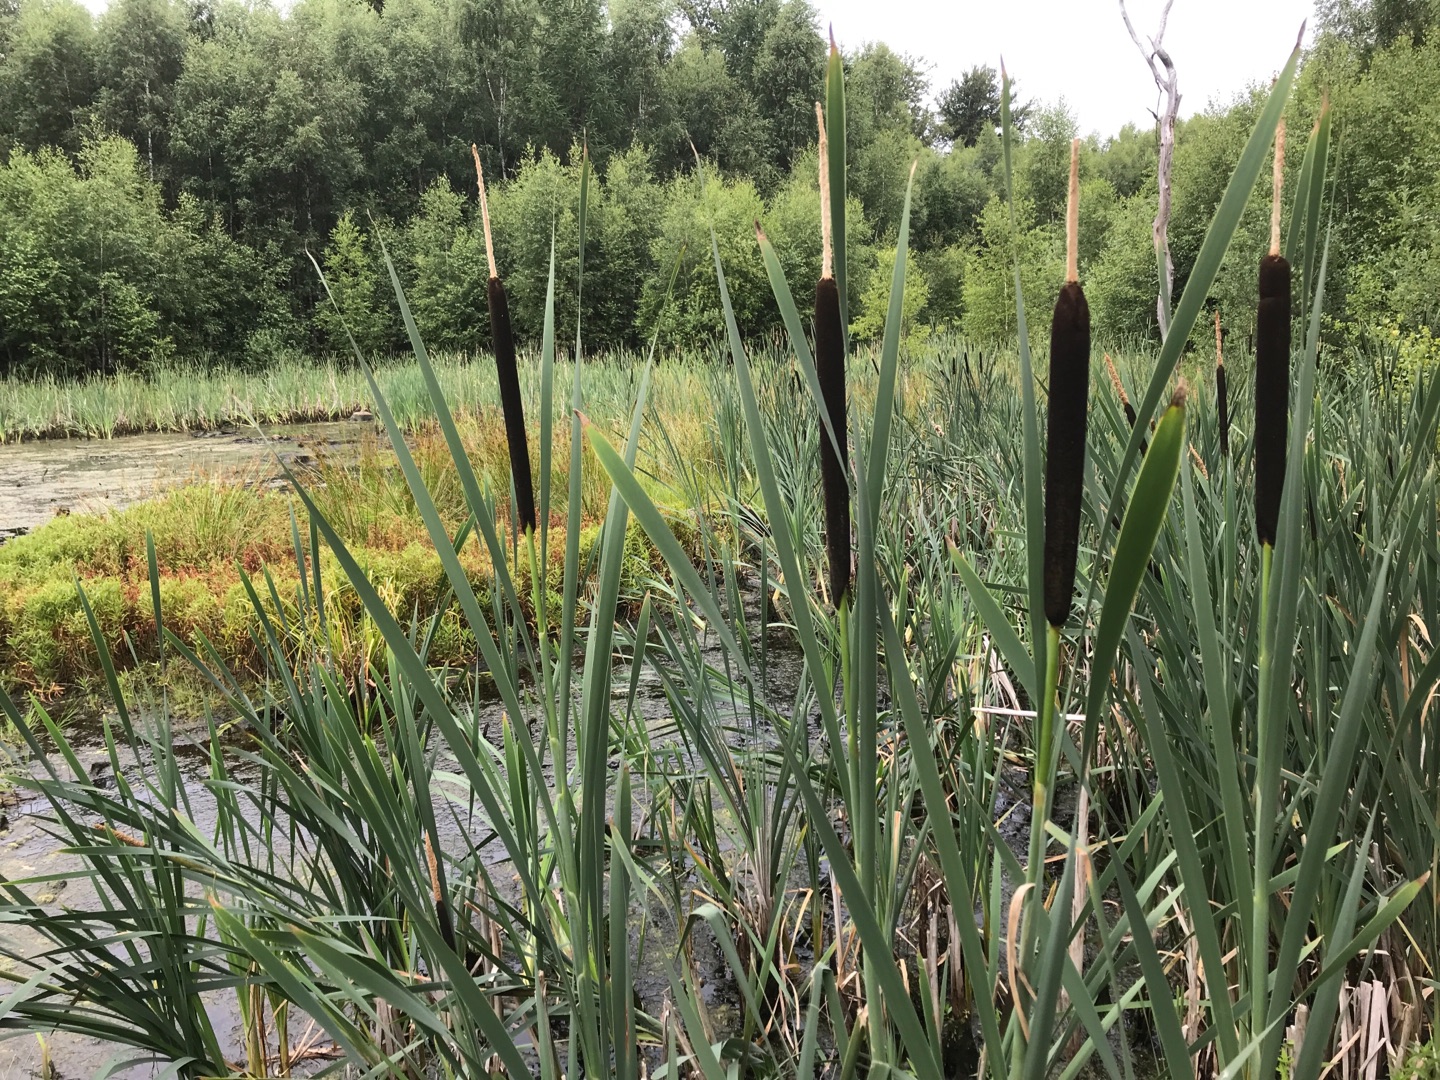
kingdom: Plantae
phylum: Tracheophyta
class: Liliopsida
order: Poales
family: Typhaceae
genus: Typha
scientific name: Typha latifolia
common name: Bredbladet dunhammer
